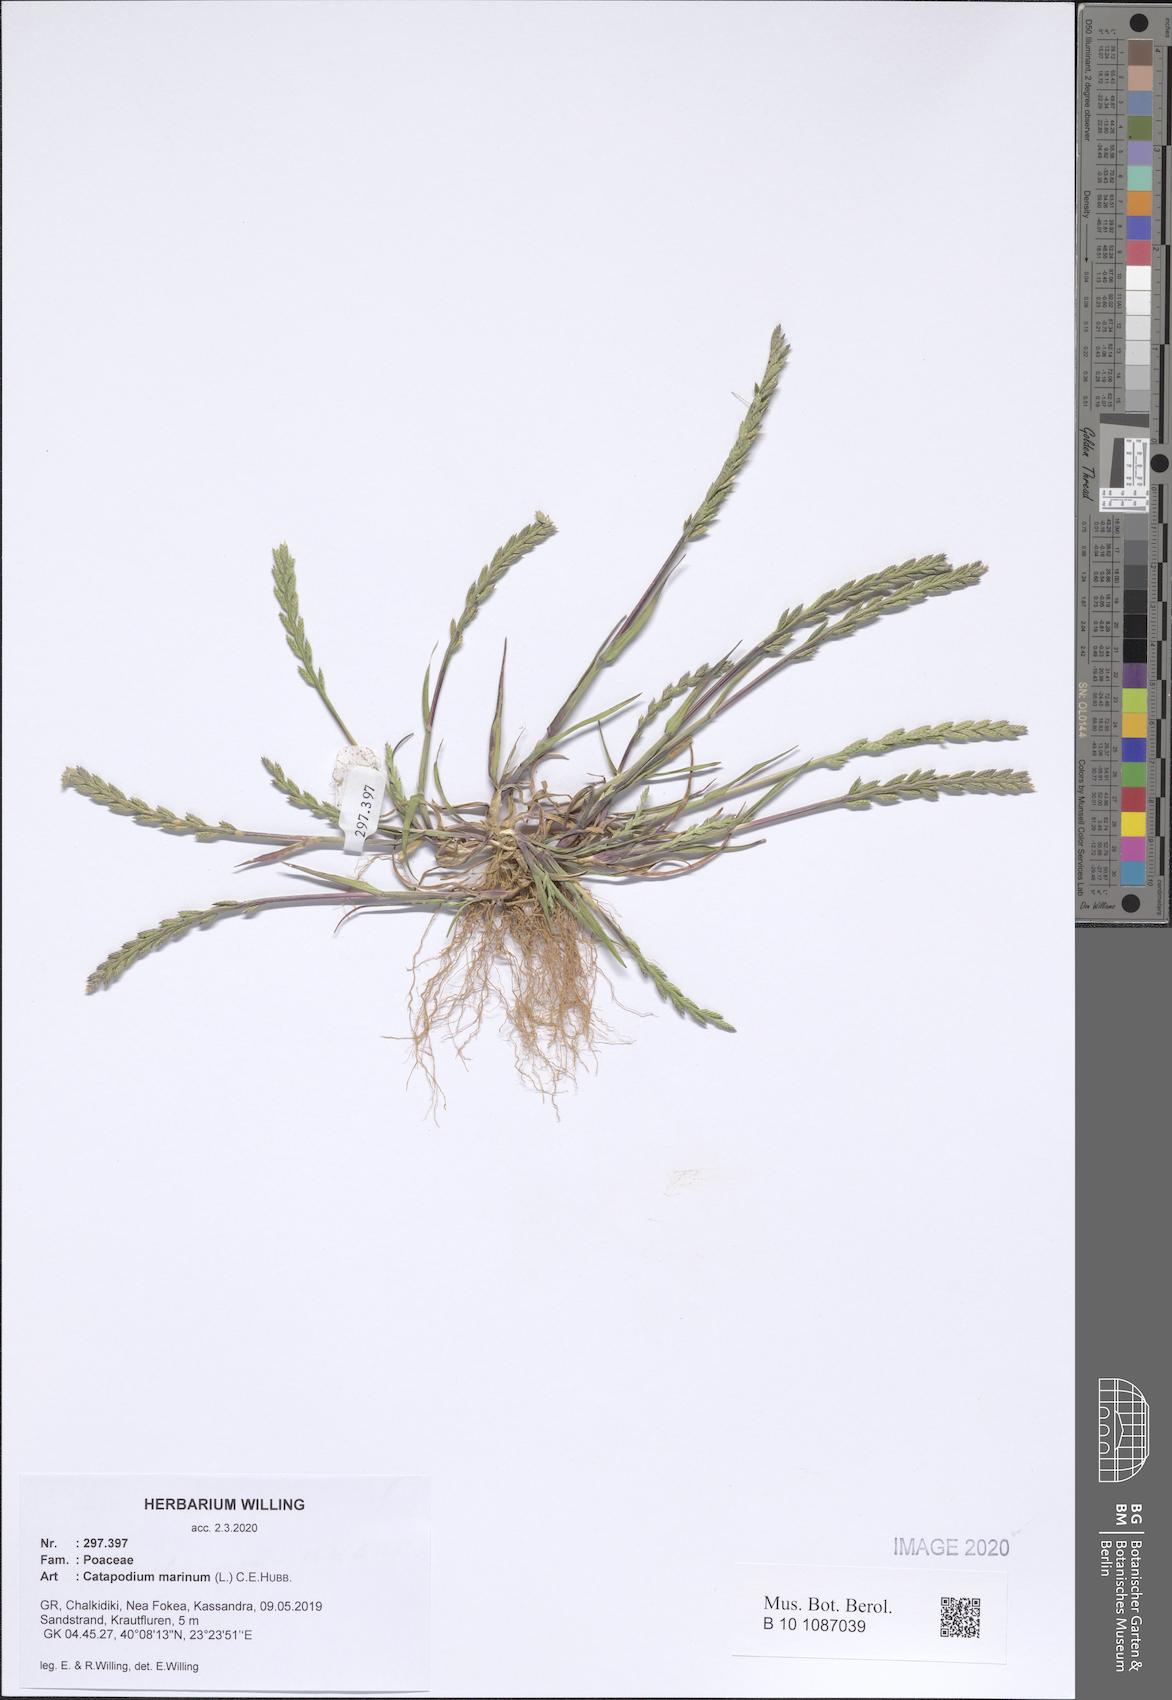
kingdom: Plantae
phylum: Tracheophyta
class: Liliopsida
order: Poales
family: Poaceae
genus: Catapodium
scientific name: Catapodium marinum
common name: Sea fern-grass
